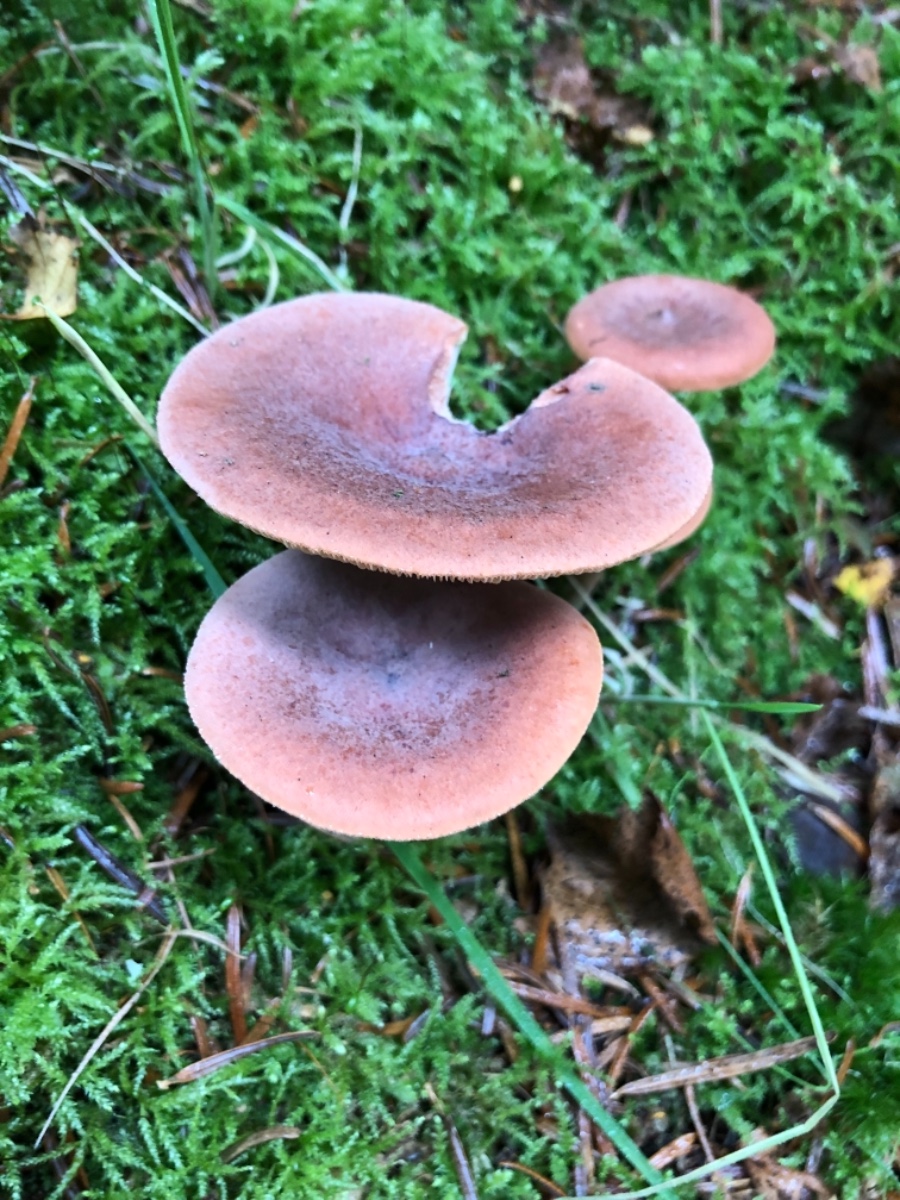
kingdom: Fungi
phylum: Basidiomycota
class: Agaricomycetes
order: Russulales
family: Russulaceae
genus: Lactarius
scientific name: Lactarius rufus
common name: rødbrun mælkehat
